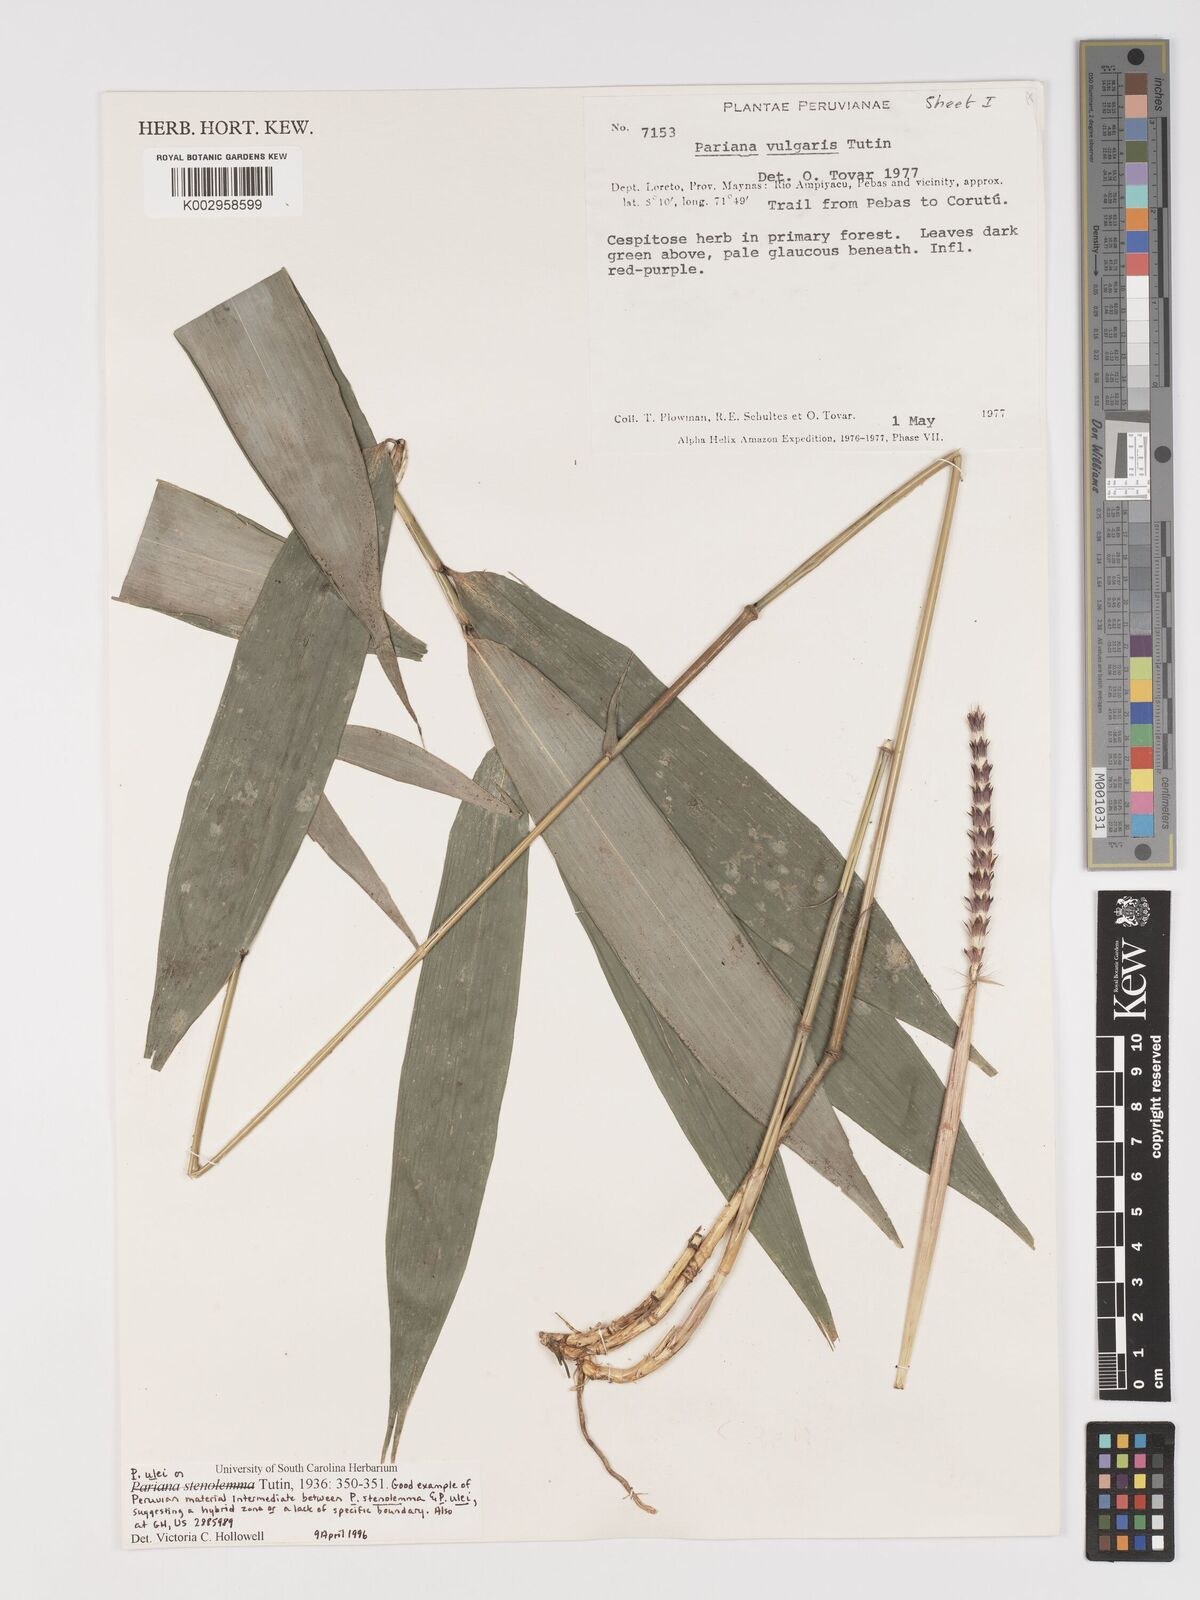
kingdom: Plantae
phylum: Tracheophyta
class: Liliopsida
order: Poales
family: Poaceae
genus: Pariana
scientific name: Pariana stenolemma
